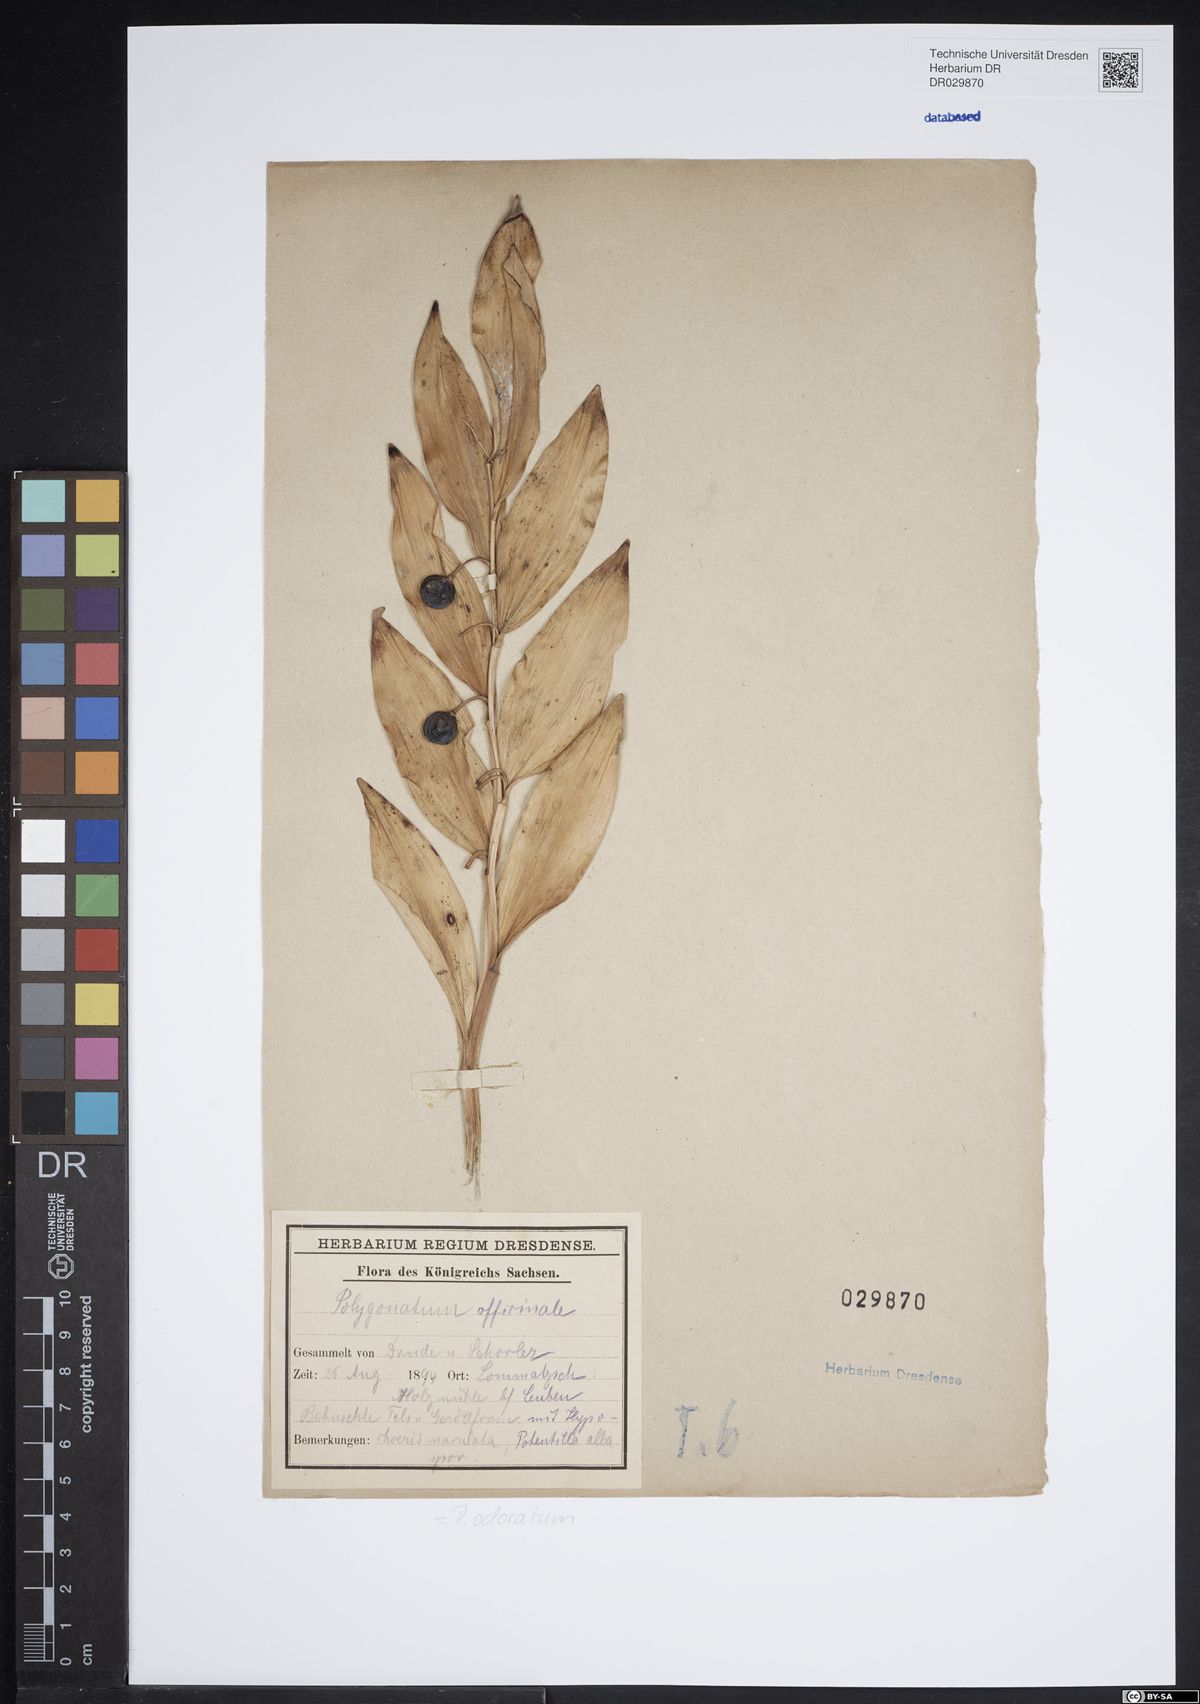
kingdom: Plantae
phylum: Tracheophyta
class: Liliopsida
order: Asparagales
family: Asparagaceae
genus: Polygonatum
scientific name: Polygonatum odoratum
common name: Angular solomon's-seal
